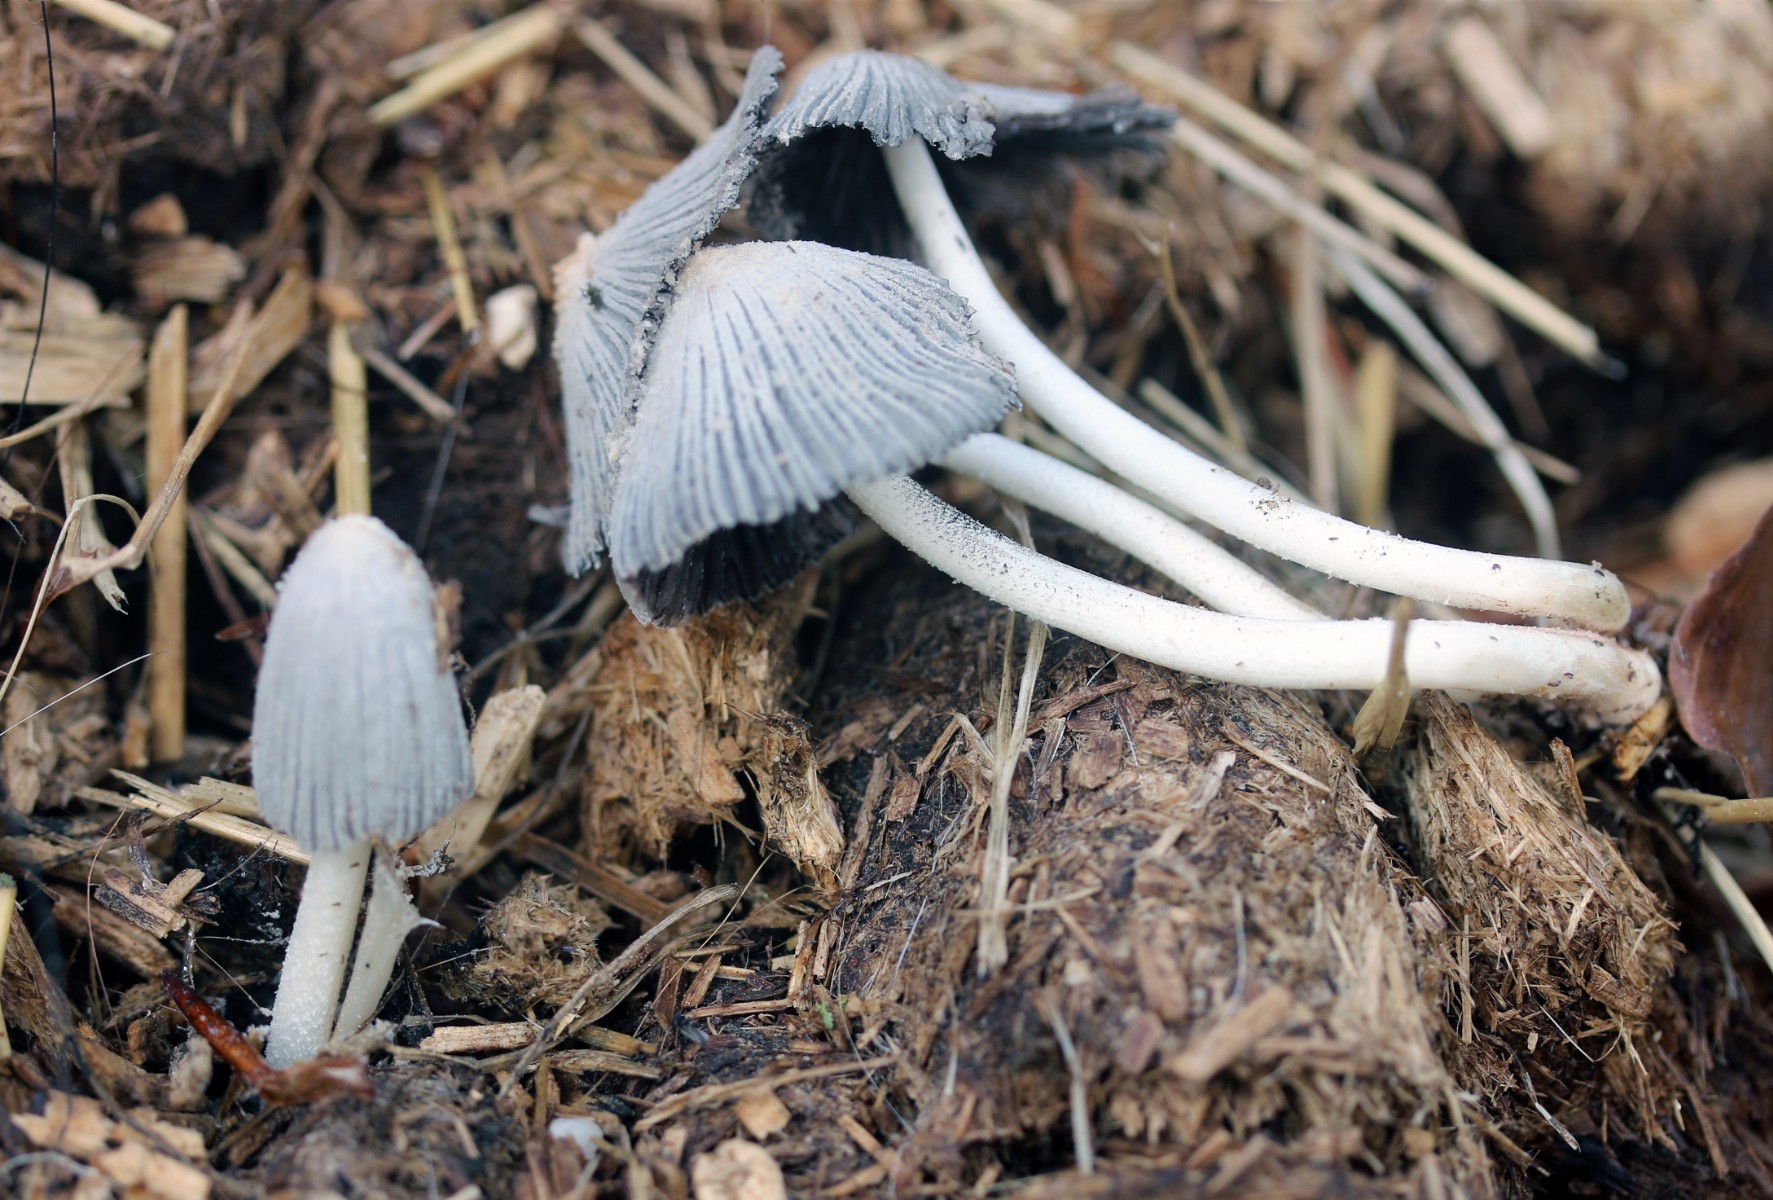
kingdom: Fungi
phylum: Basidiomycota
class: Agaricomycetes
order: Agaricales
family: Psathyrellaceae
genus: Coprinopsis
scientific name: Coprinopsis nivea
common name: snehvid blækhat
